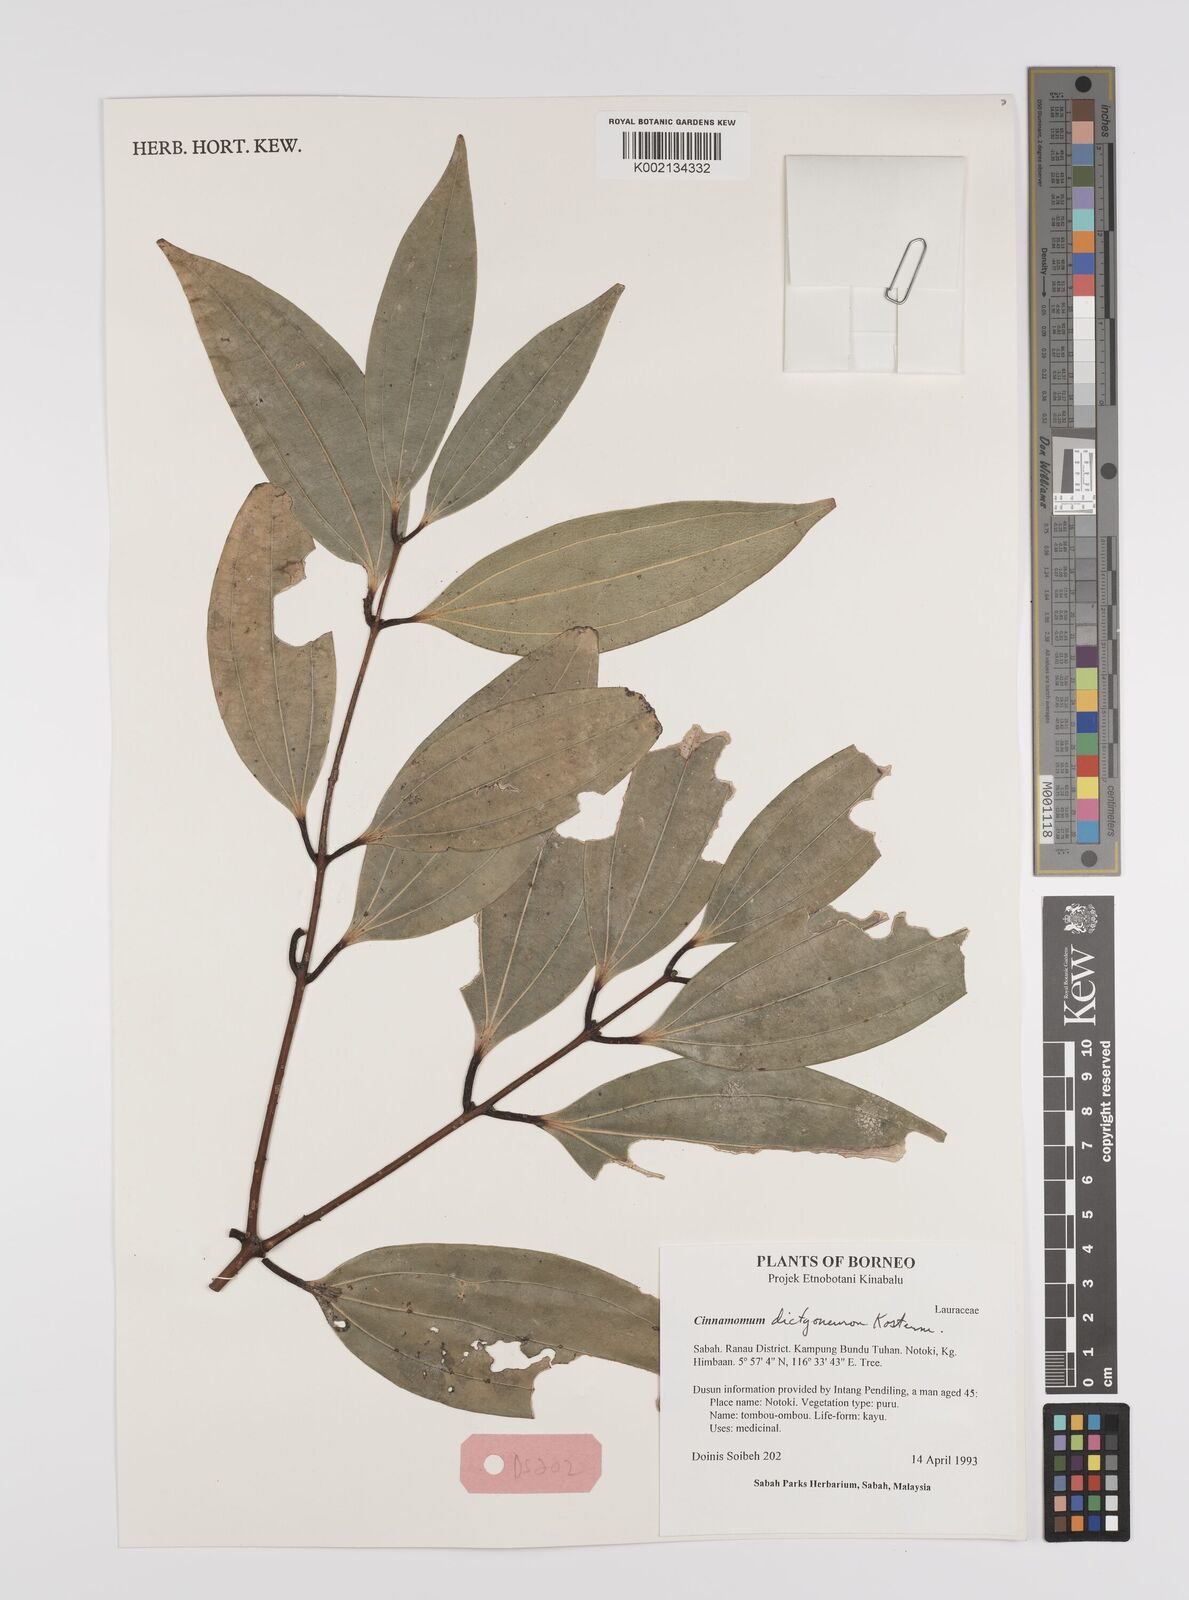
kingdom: Plantae
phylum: Tracheophyta
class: Magnoliopsida
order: Laurales
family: Lauraceae
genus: Cinnamomum
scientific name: Cinnamomum racemosum
